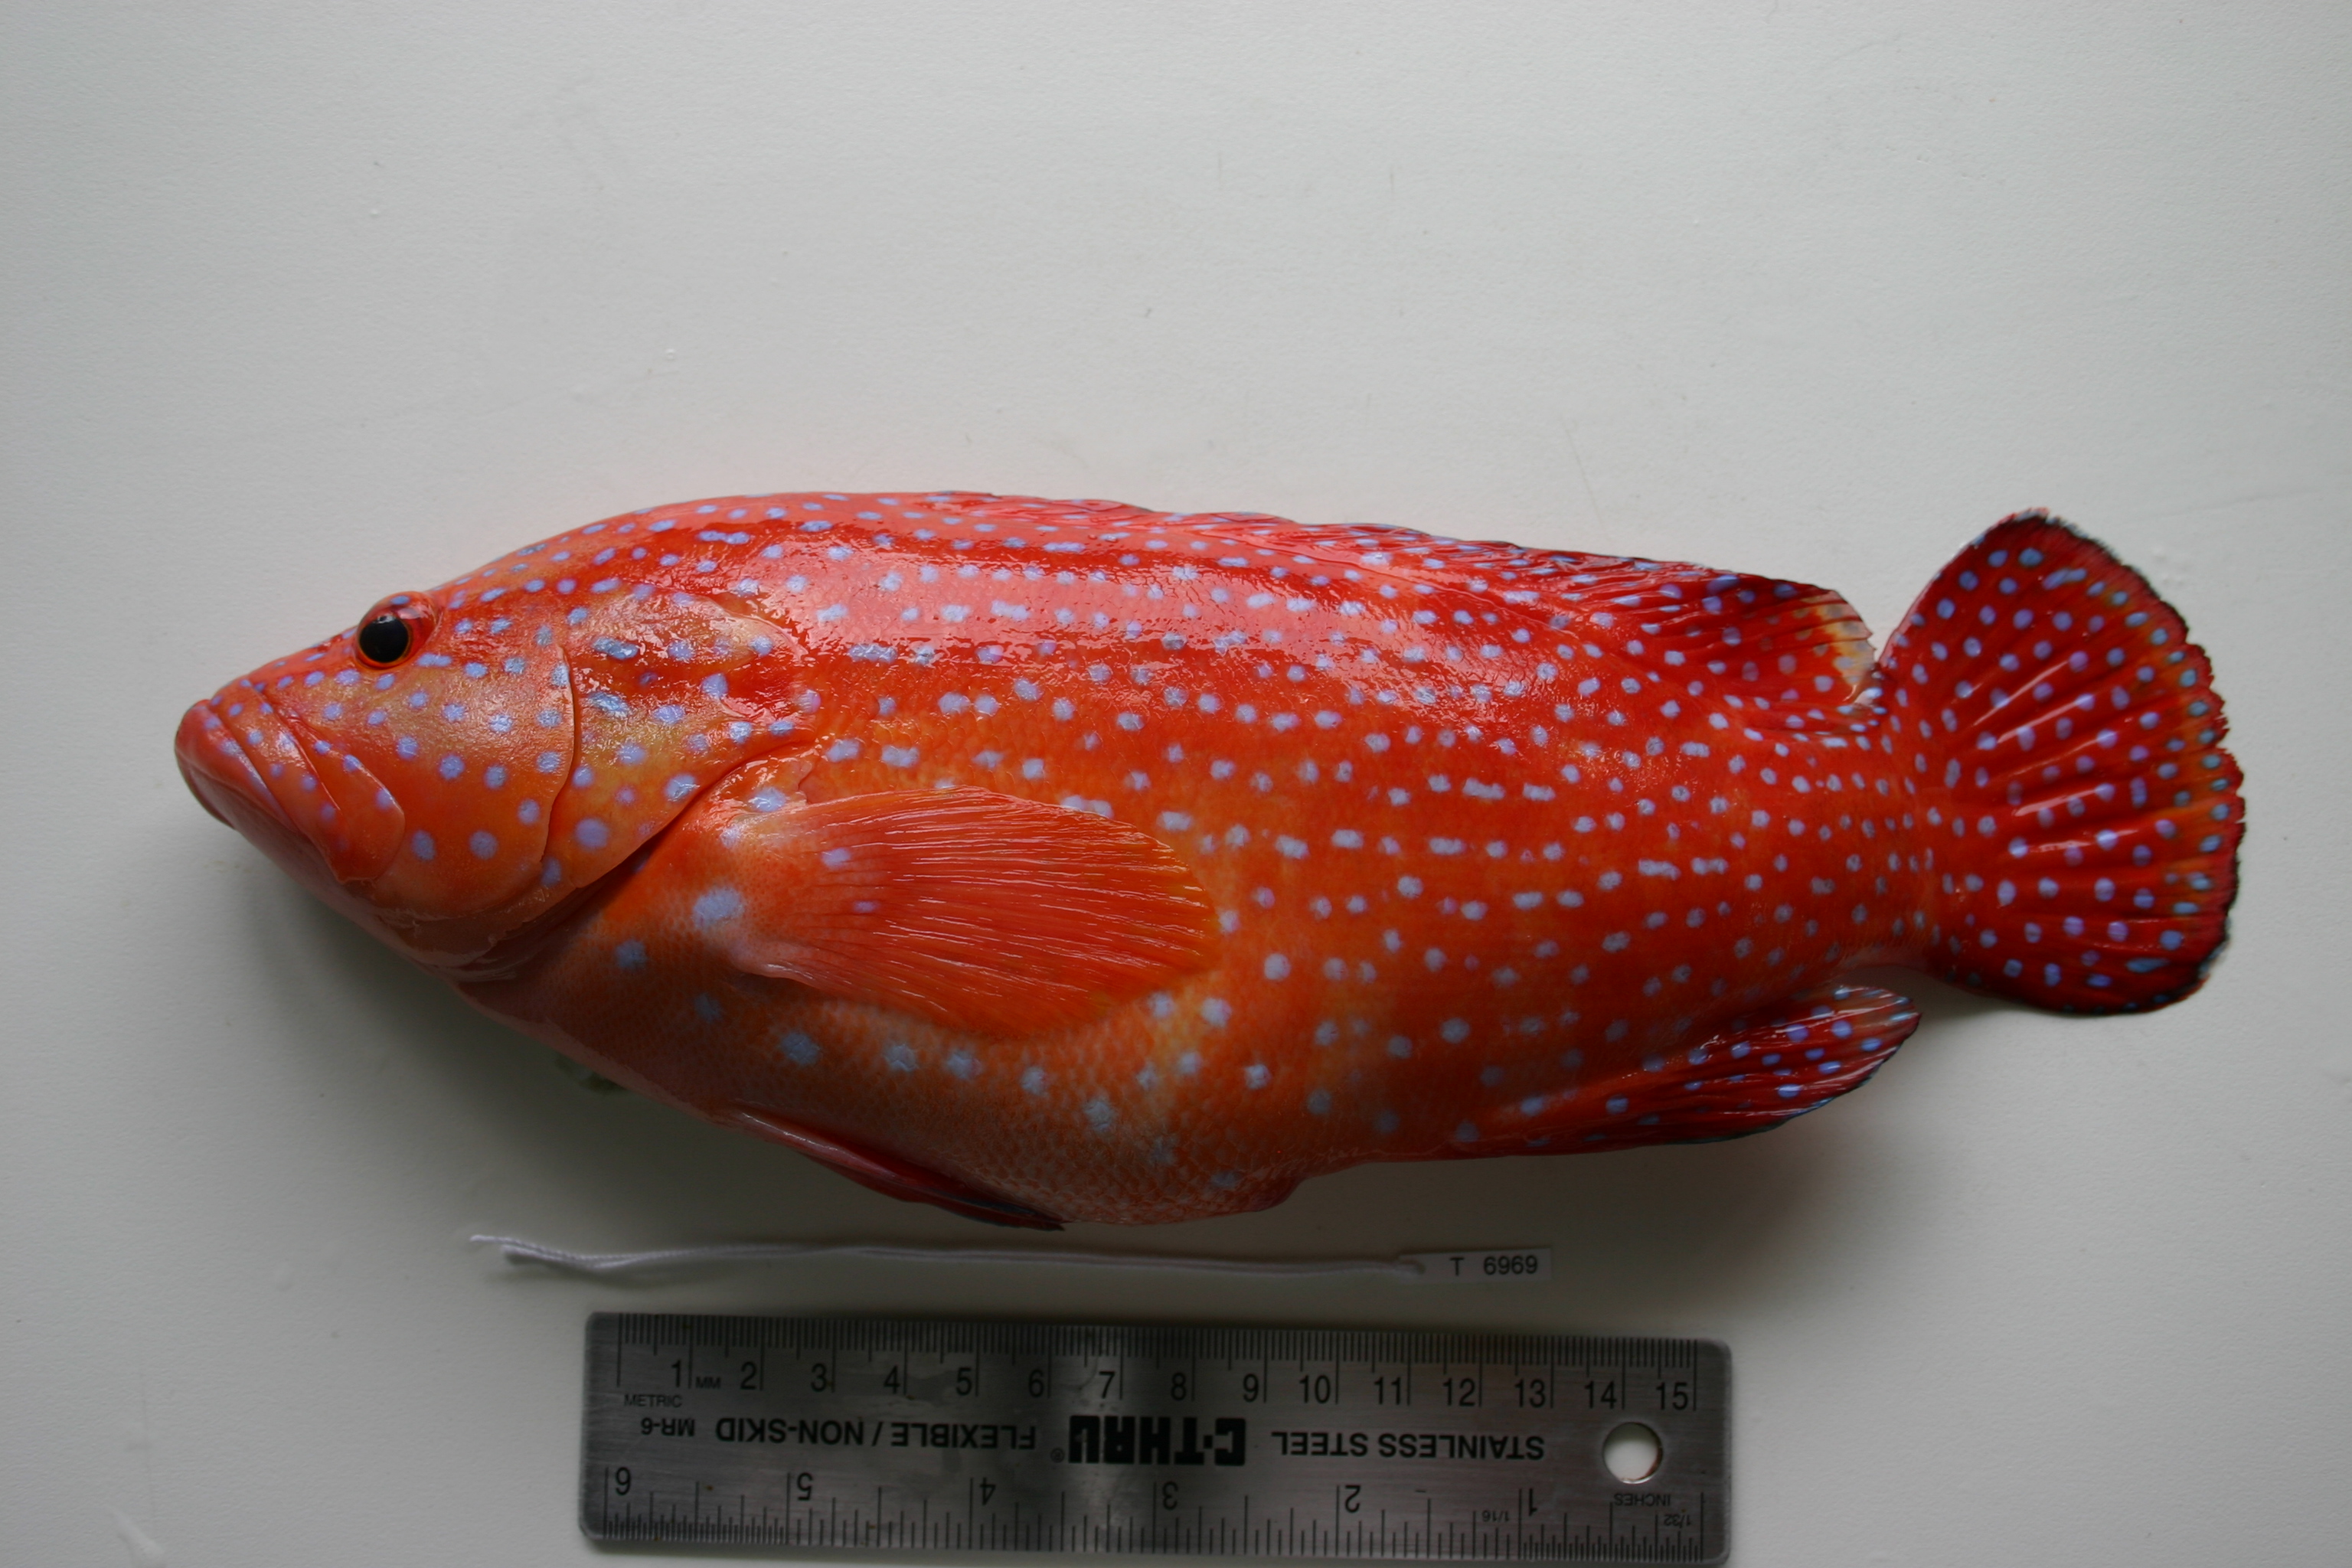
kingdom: Animalia
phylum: Chordata
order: Perciformes
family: Serranidae
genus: Cephalopholis
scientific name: Cephalopholis miniata
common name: Coral hind
